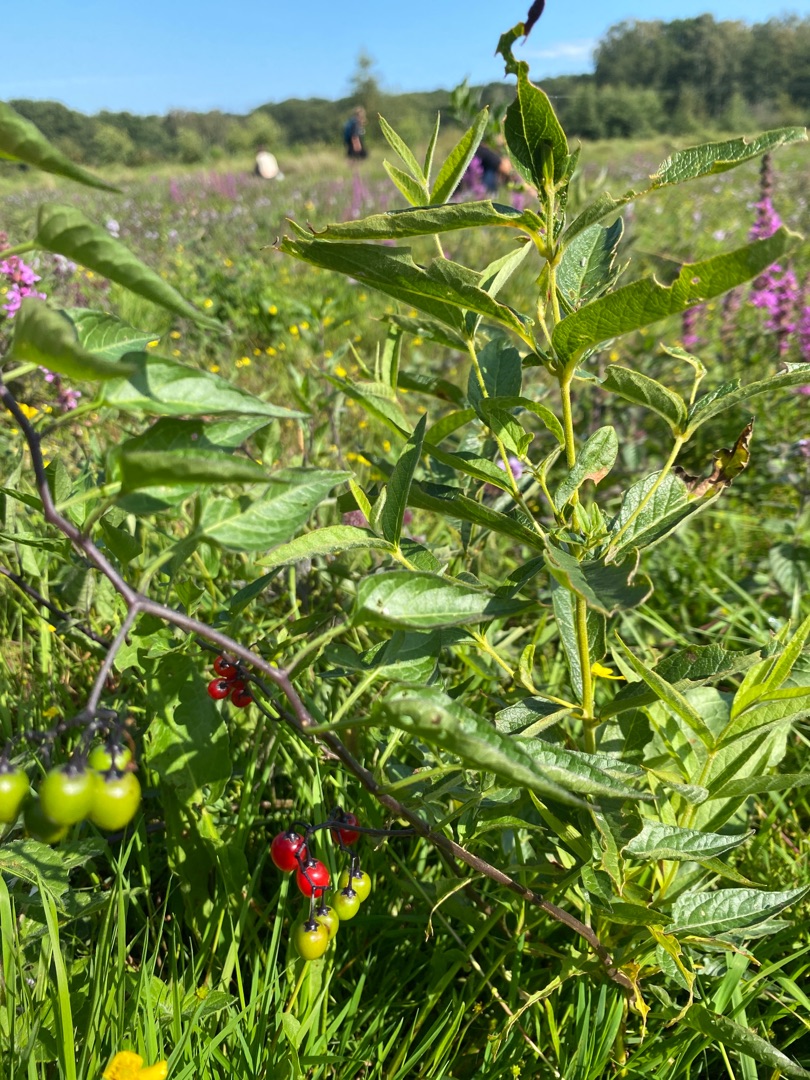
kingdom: Plantae
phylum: Tracheophyta
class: Magnoliopsida
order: Solanales
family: Solanaceae
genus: Solanum
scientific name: Solanum dulcamara
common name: Bittersød natskygge
